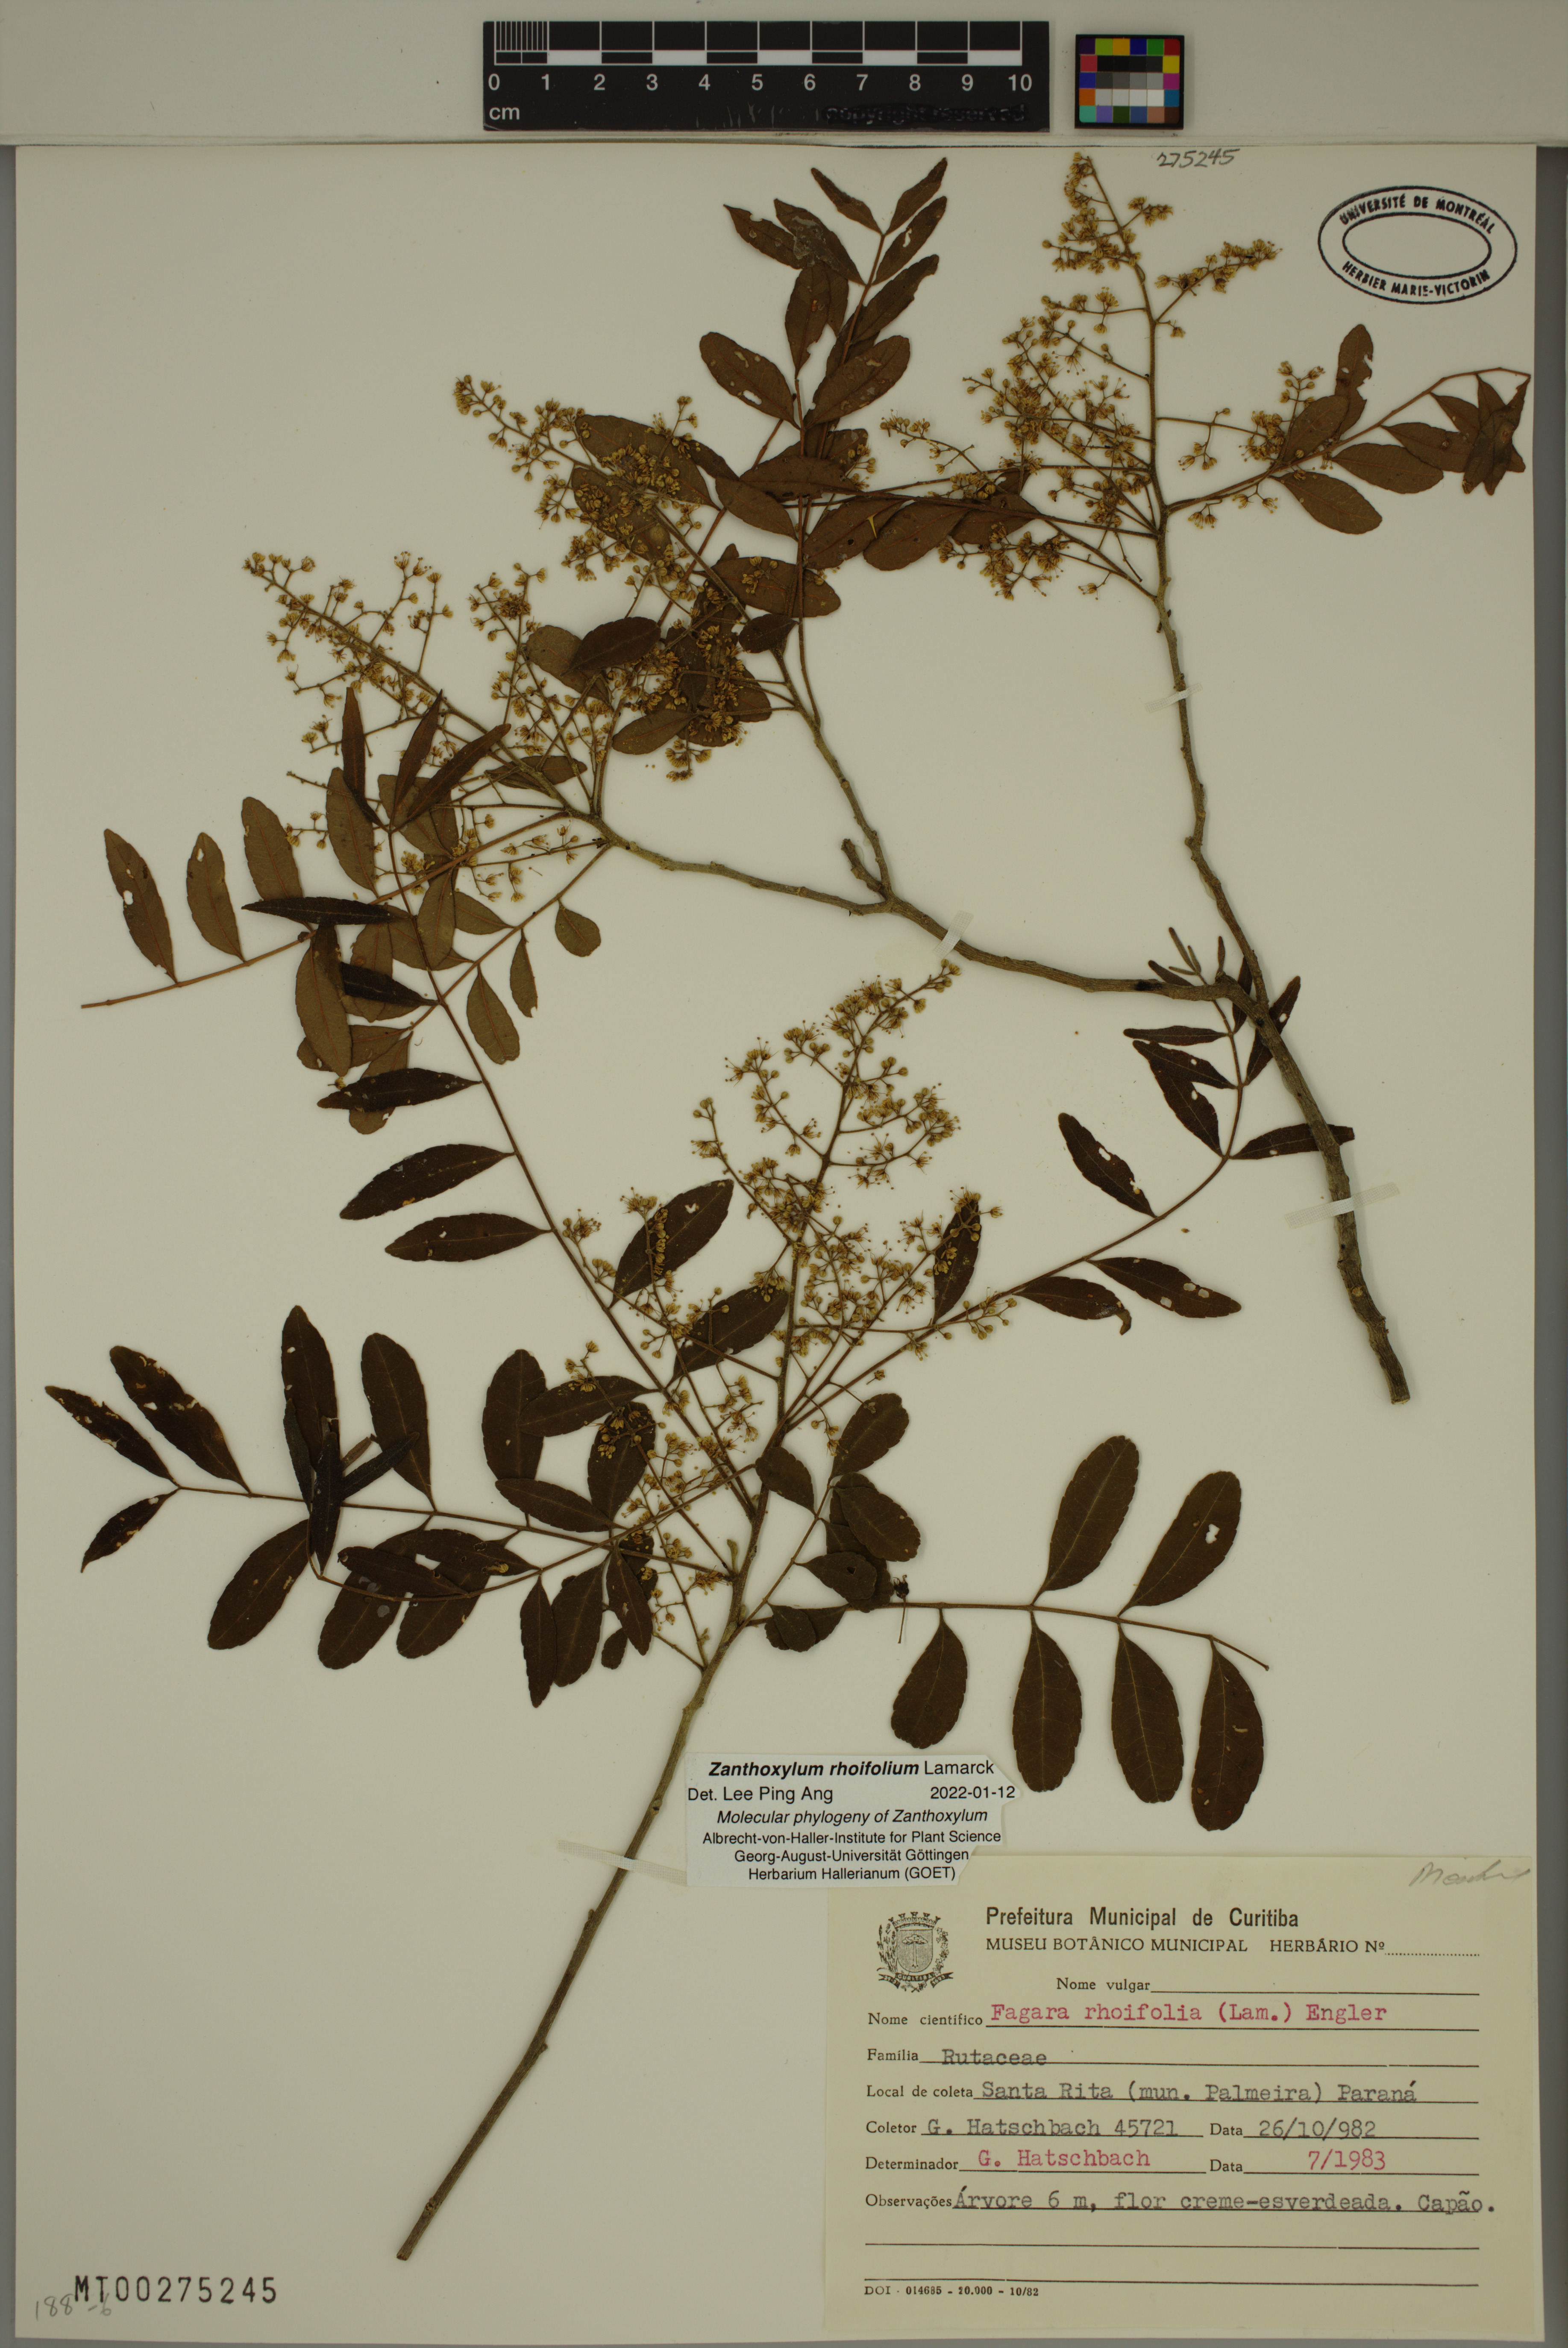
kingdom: Plantae
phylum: Tracheophyta
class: Magnoliopsida
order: Sapindales
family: Rutaceae
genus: Zanthoxylum
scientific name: Zanthoxylum rhoifolium
